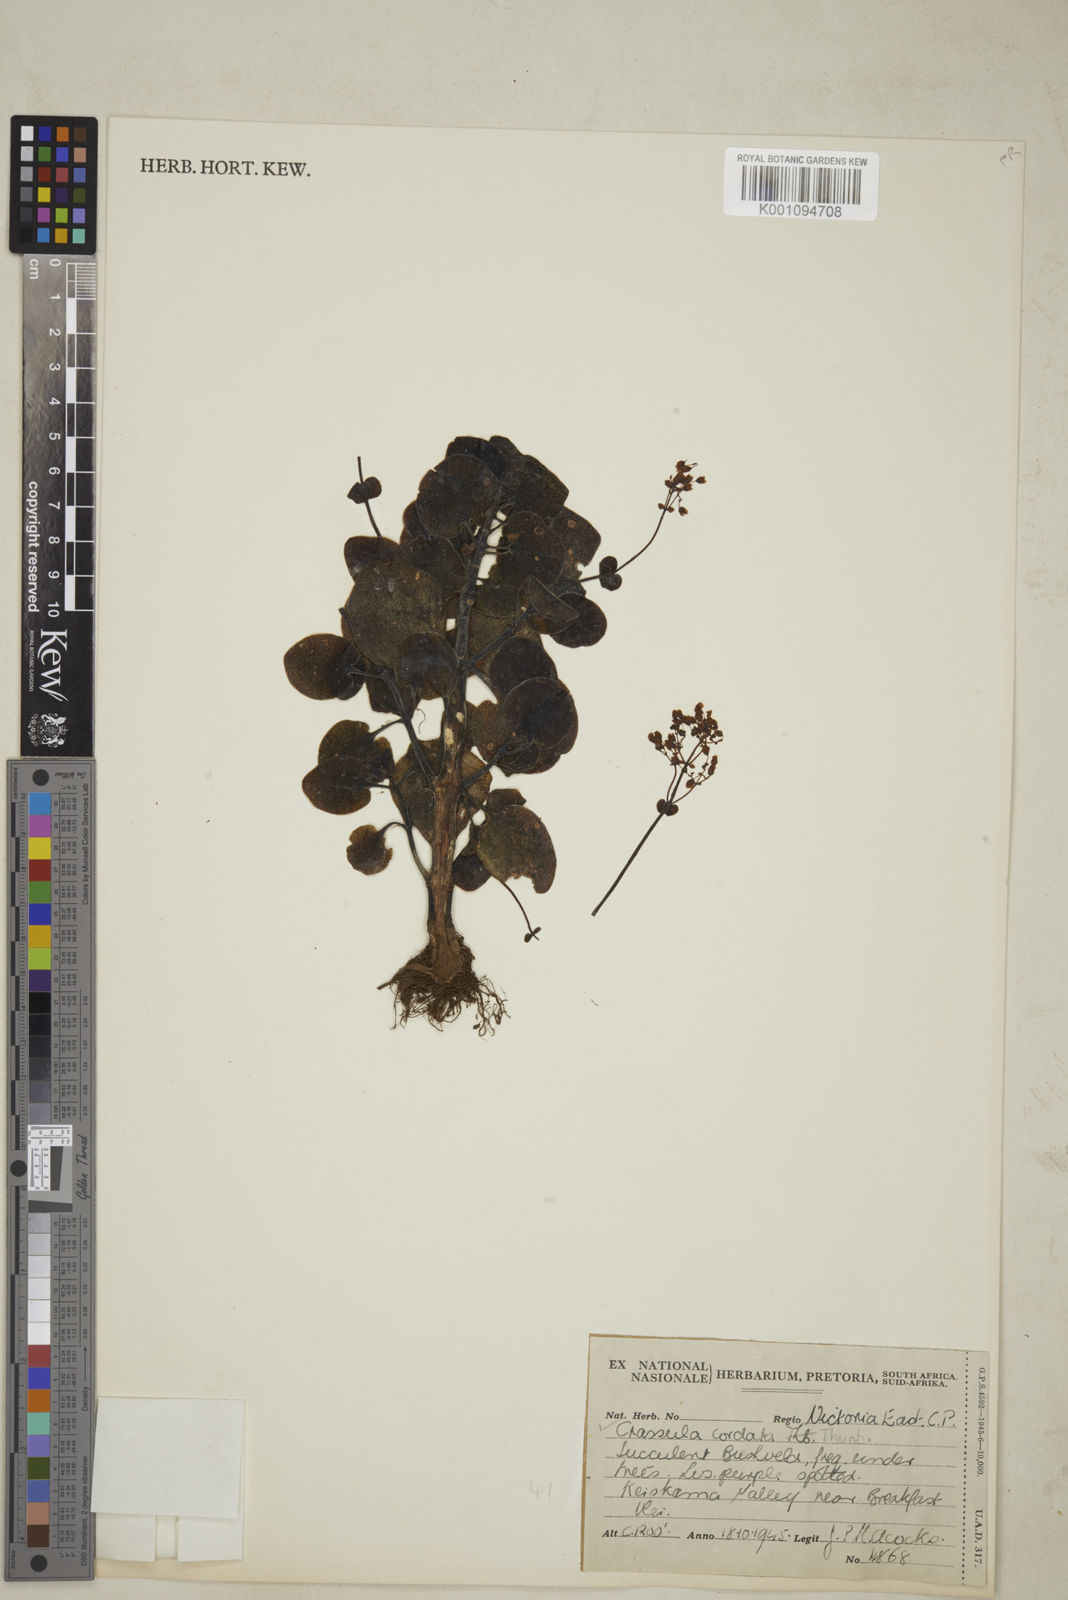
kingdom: Plantae
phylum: Tracheophyta
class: Magnoliopsida
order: Saxifragales
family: Crassulaceae
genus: Crassula
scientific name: Crassula spathulata
